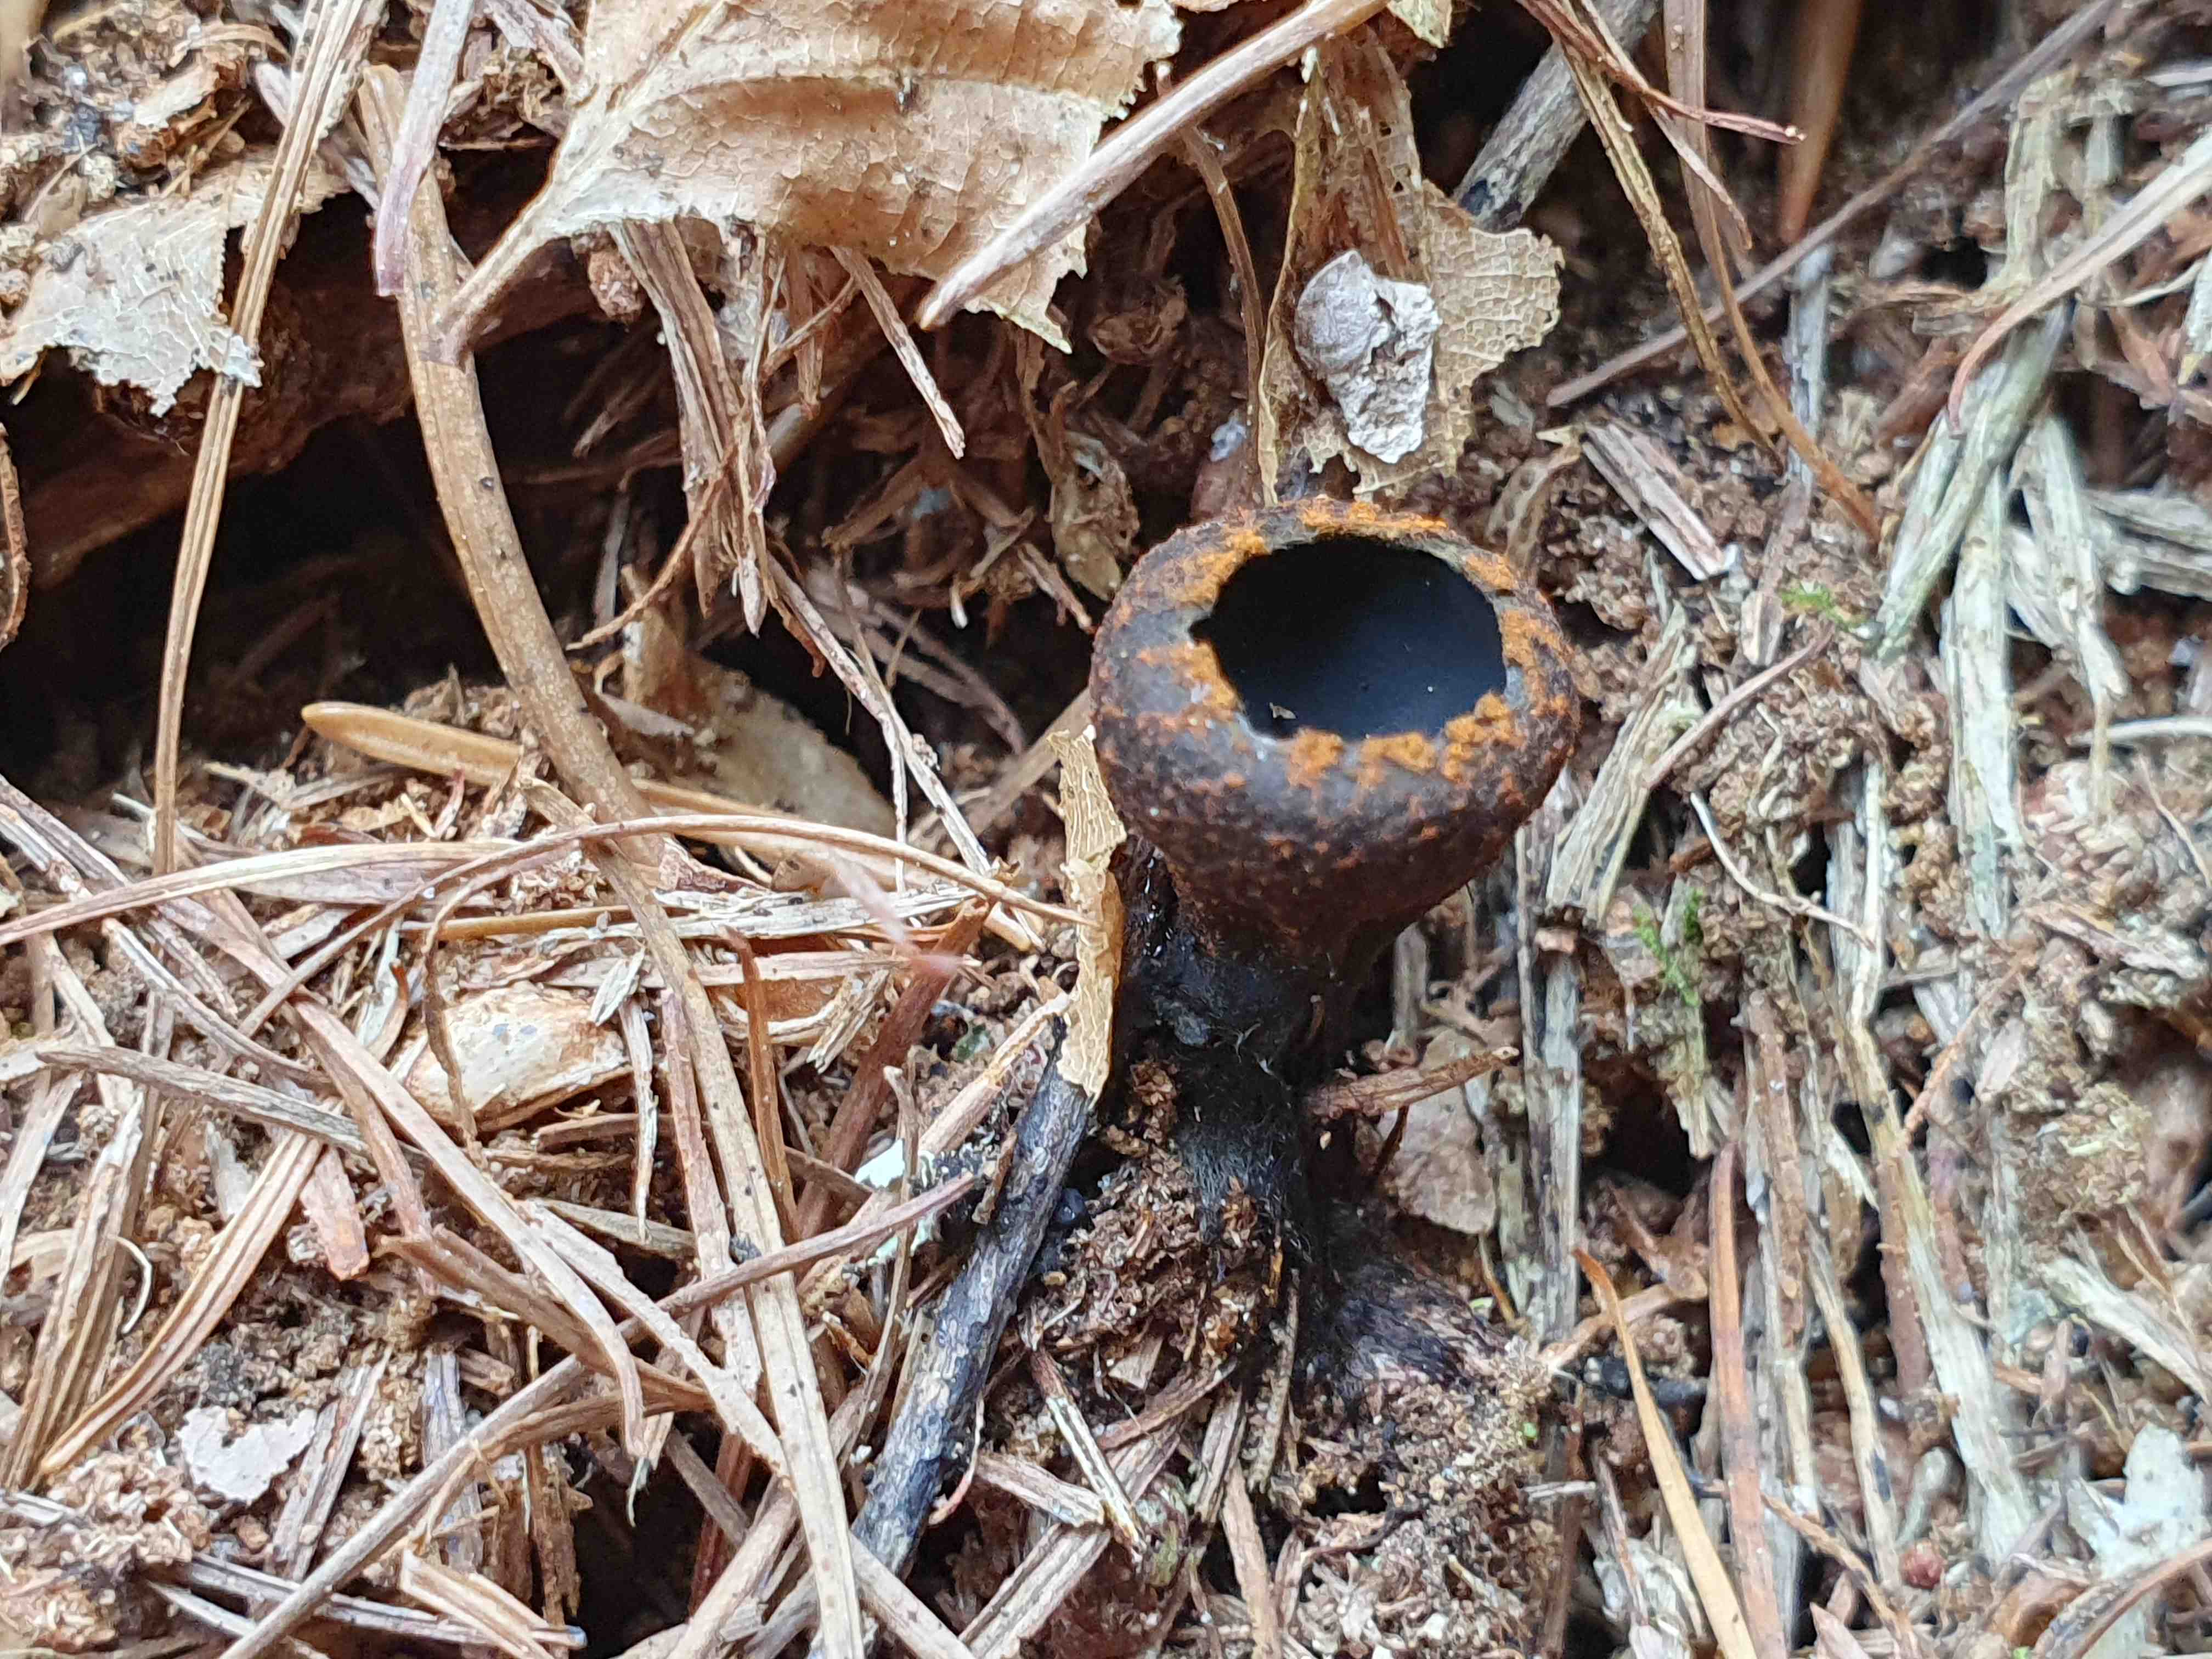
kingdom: Fungi
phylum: Ascomycota
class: Pezizomycetes
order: Pezizales
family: Sarcosomataceae
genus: Plectania
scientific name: Plectania melastoma
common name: rustbæger
